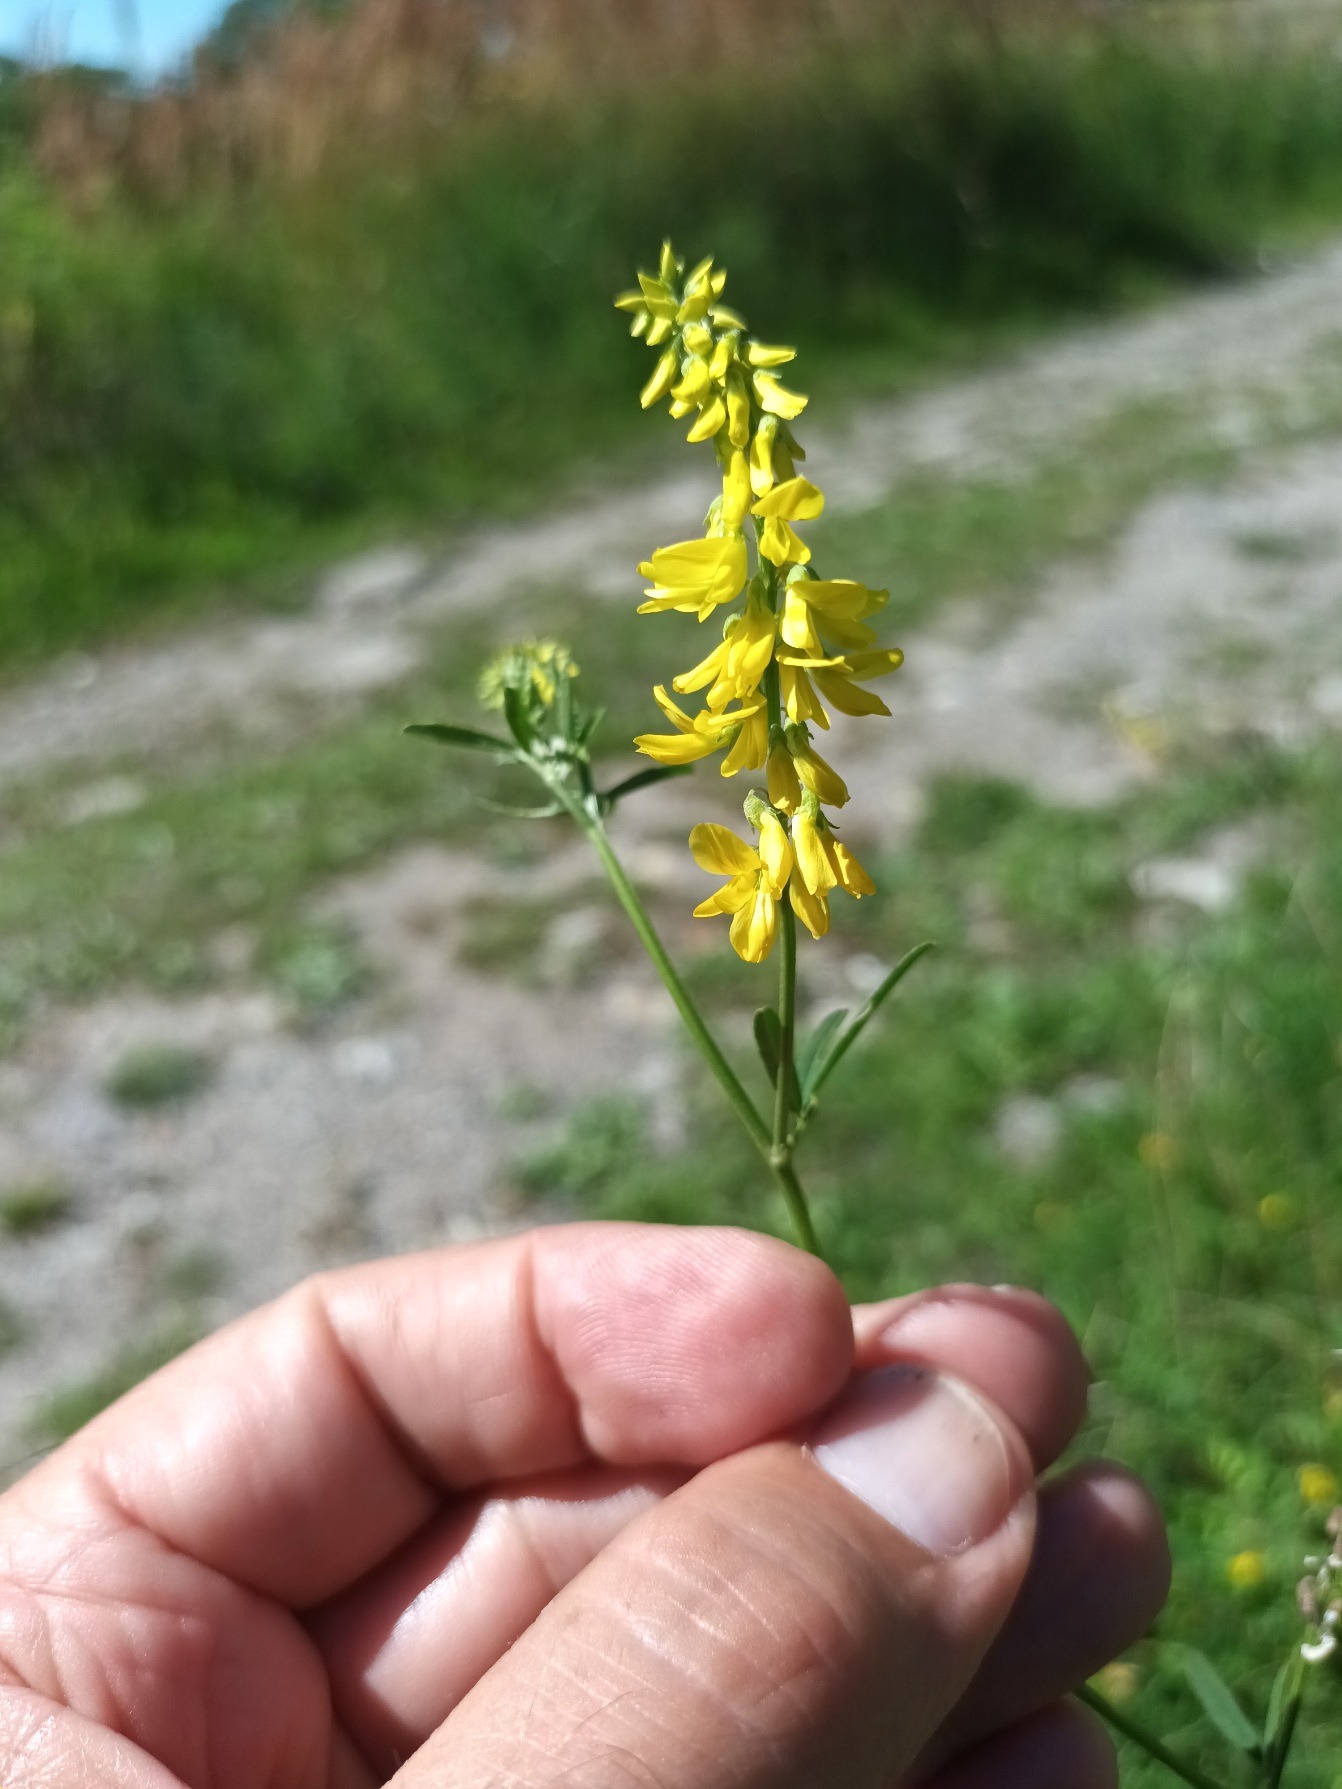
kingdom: Plantae
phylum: Tracheophyta
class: Magnoliopsida
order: Fabales
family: Fabaceae
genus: Melilotus
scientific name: Melilotus officinalis
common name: Mark-stenkløver
